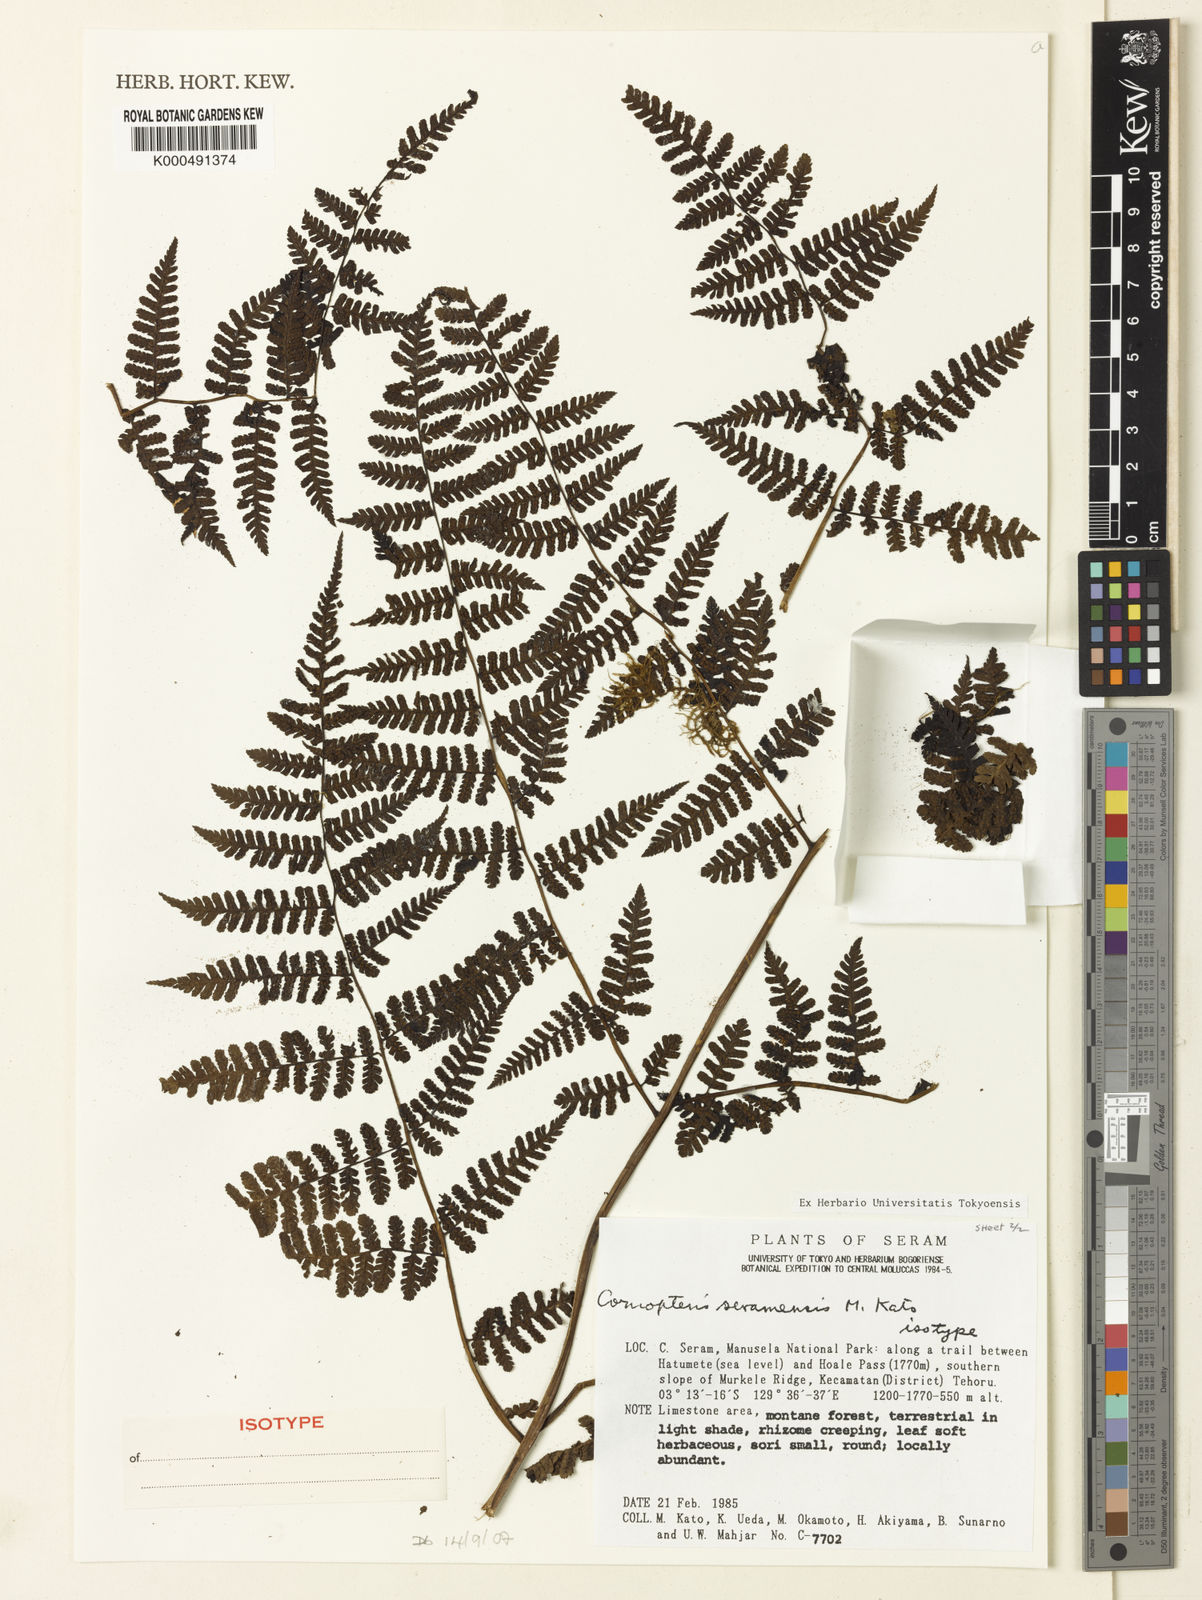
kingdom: Plantae
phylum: Tracheophyta
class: Polypodiopsida
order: Polypodiales
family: Athyriaceae
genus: Diplazium
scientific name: Diplazium
